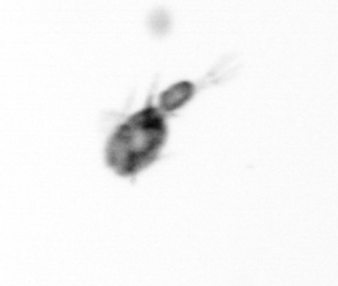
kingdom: Animalia
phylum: Arthropoda
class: Copepoda
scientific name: Copepoda
